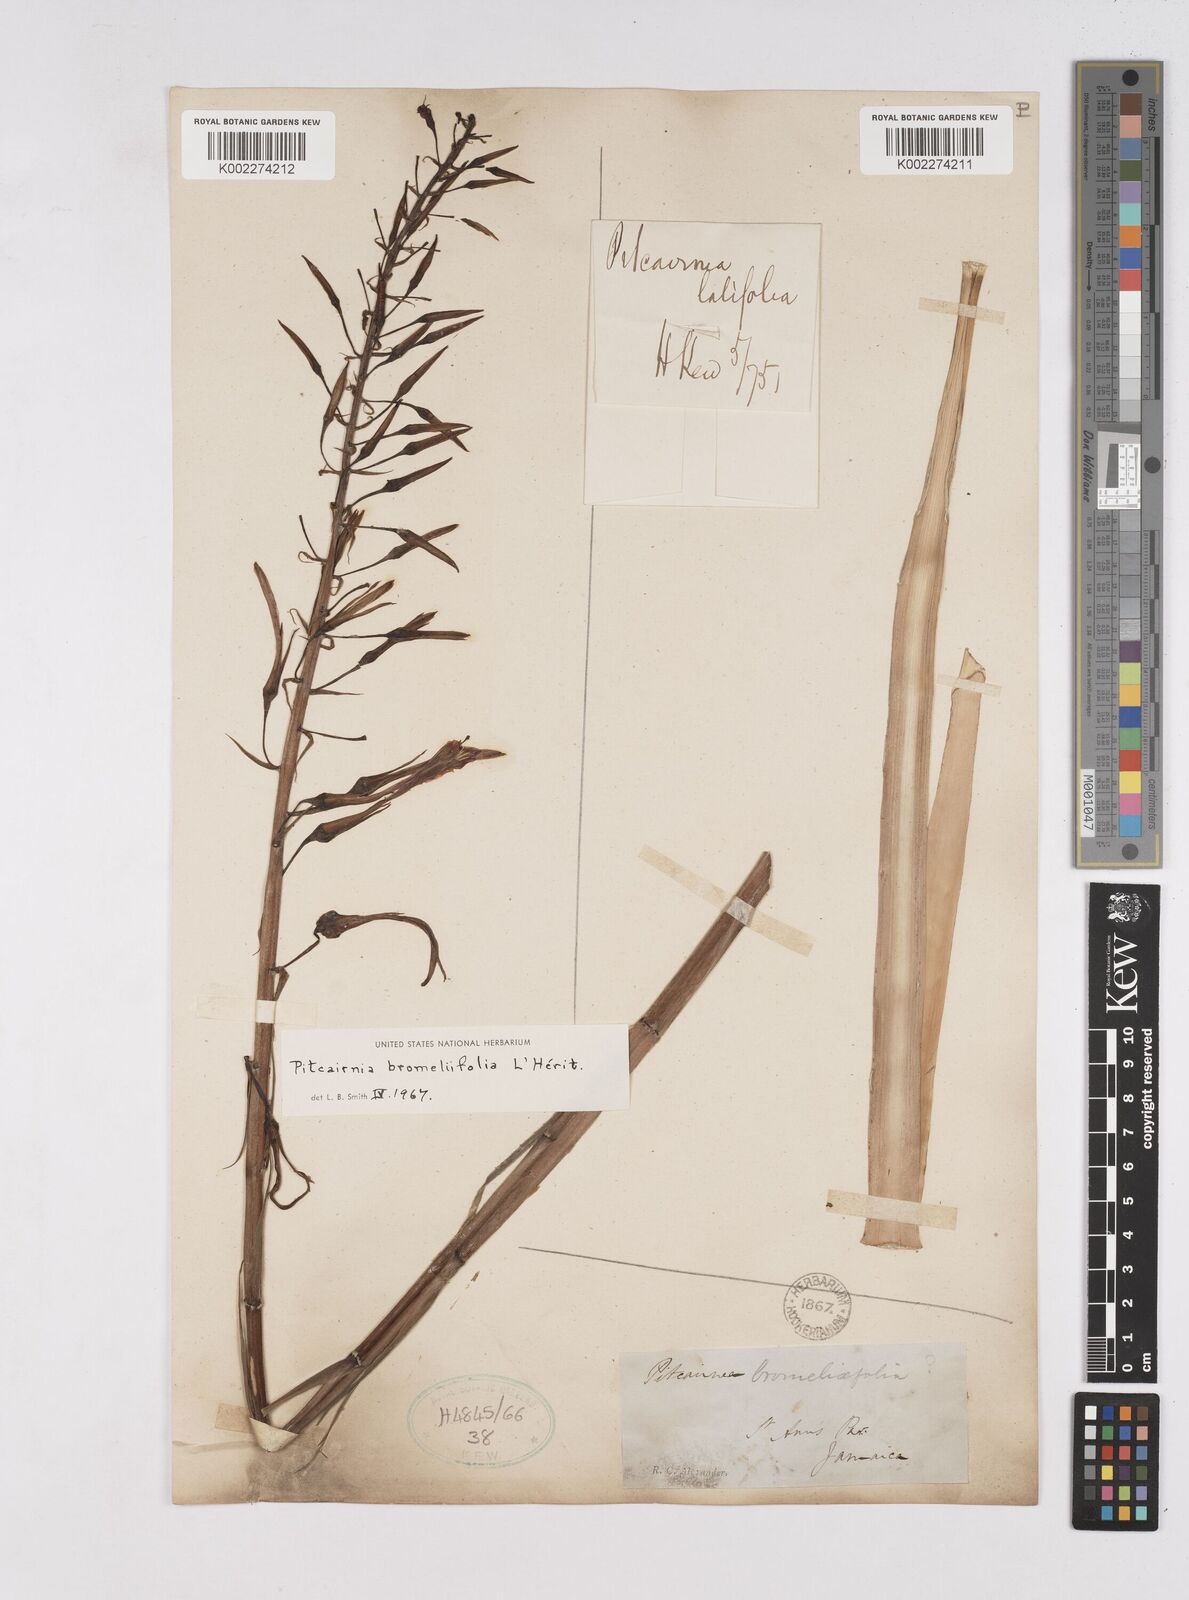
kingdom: Plantae
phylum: Tracheophyta
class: Liliopsida
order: Poales
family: Bromeliaceae
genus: Pitcairnia
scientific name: Pitcairnia bromeliifolia
